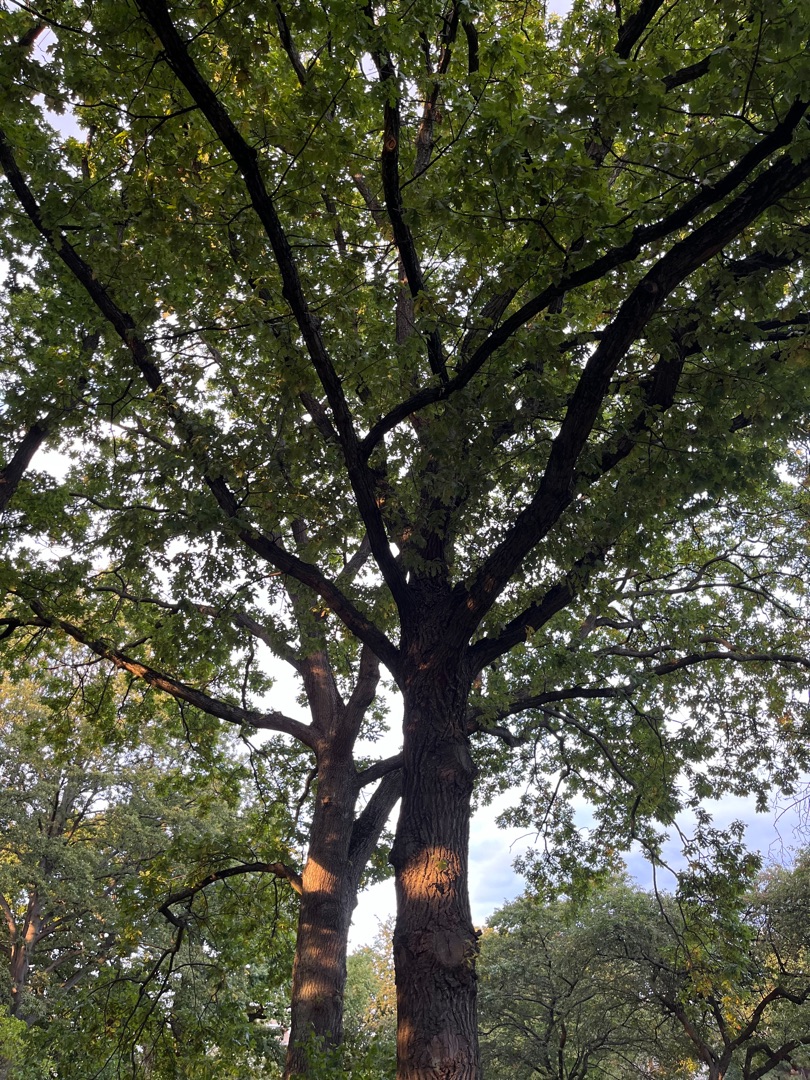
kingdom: Plantae
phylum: Tracheophyta
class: Magnoliopsida
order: Fagales
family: Fagaceae
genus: Quercus
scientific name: Quercus robur
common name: Stilk-eg/almindelig eg
